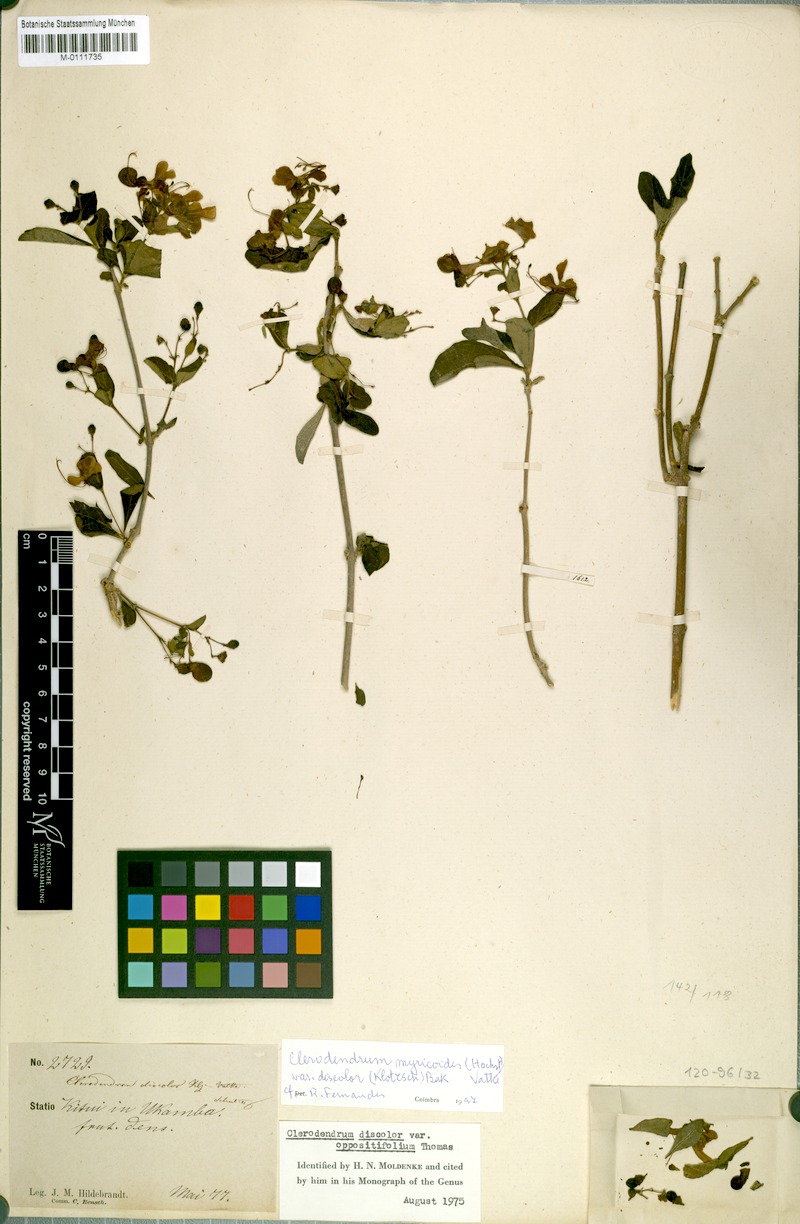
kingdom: Plantae
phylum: Tracheophyta
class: Magnoliopsida
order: Lamiales
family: Lamiaceae
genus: Rotheca
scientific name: Rotheca myricoides
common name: Cats-whiskers
